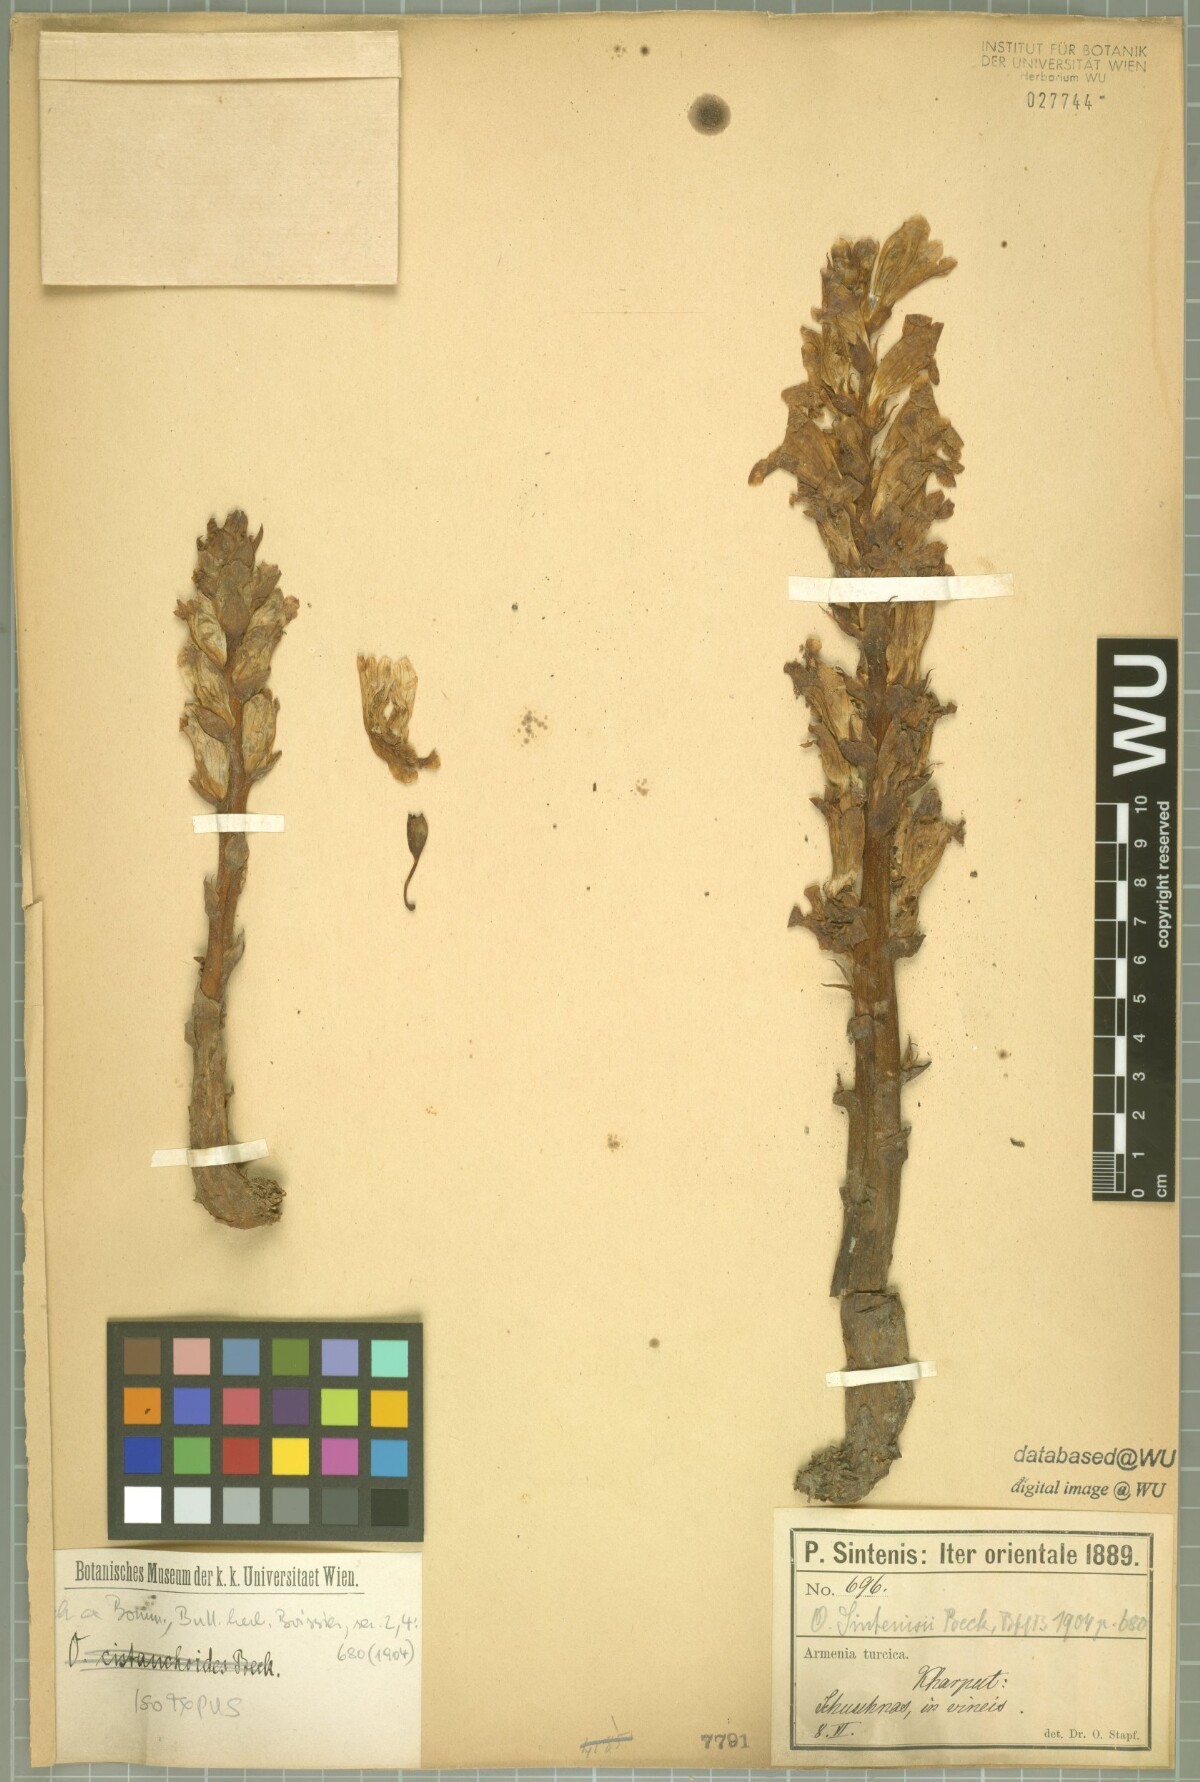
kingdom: Plantae
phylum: Tracheophyta
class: Magnoliopsida
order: Lamiales
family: Orobanchaceae
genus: Orobanche
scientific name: Orobanche sintenisii
